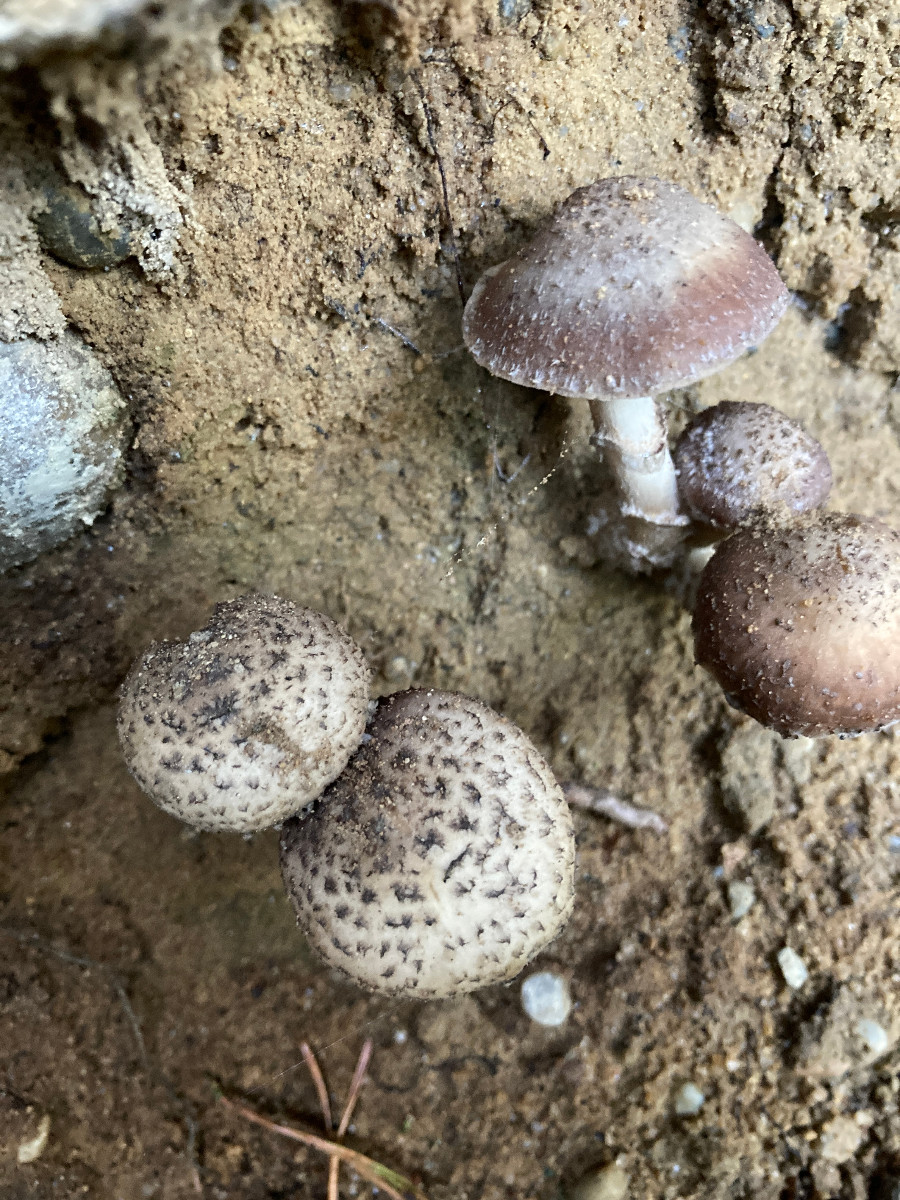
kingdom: Fungi
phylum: Basidiomycota
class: Agaricomycetes
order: Agaricales
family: Psathyrellaceae
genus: Psathyrella
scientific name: Psathyrella caput-medusae
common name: medusa-mørkhat
